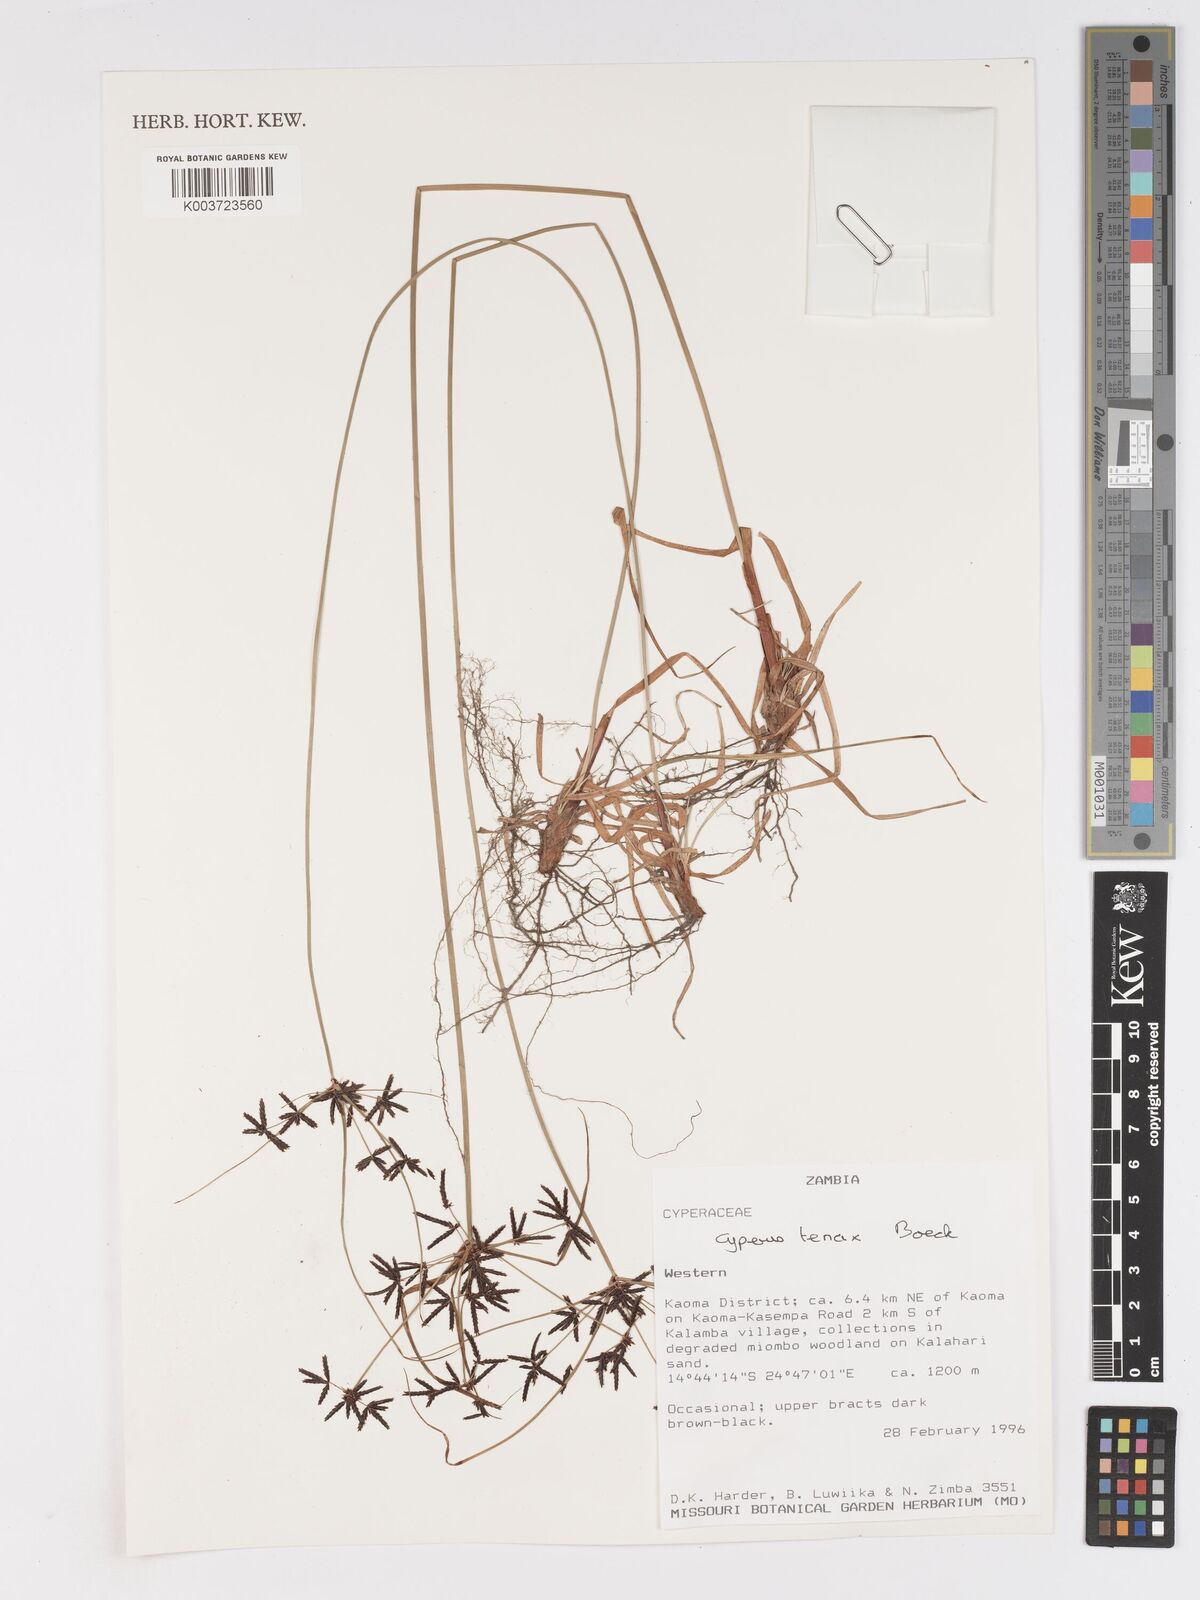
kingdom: Plantae
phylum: Tracheophyta
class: Liliopsida
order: Poales
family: Cyperaceae
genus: Cyperus
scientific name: Cyperus tenax
